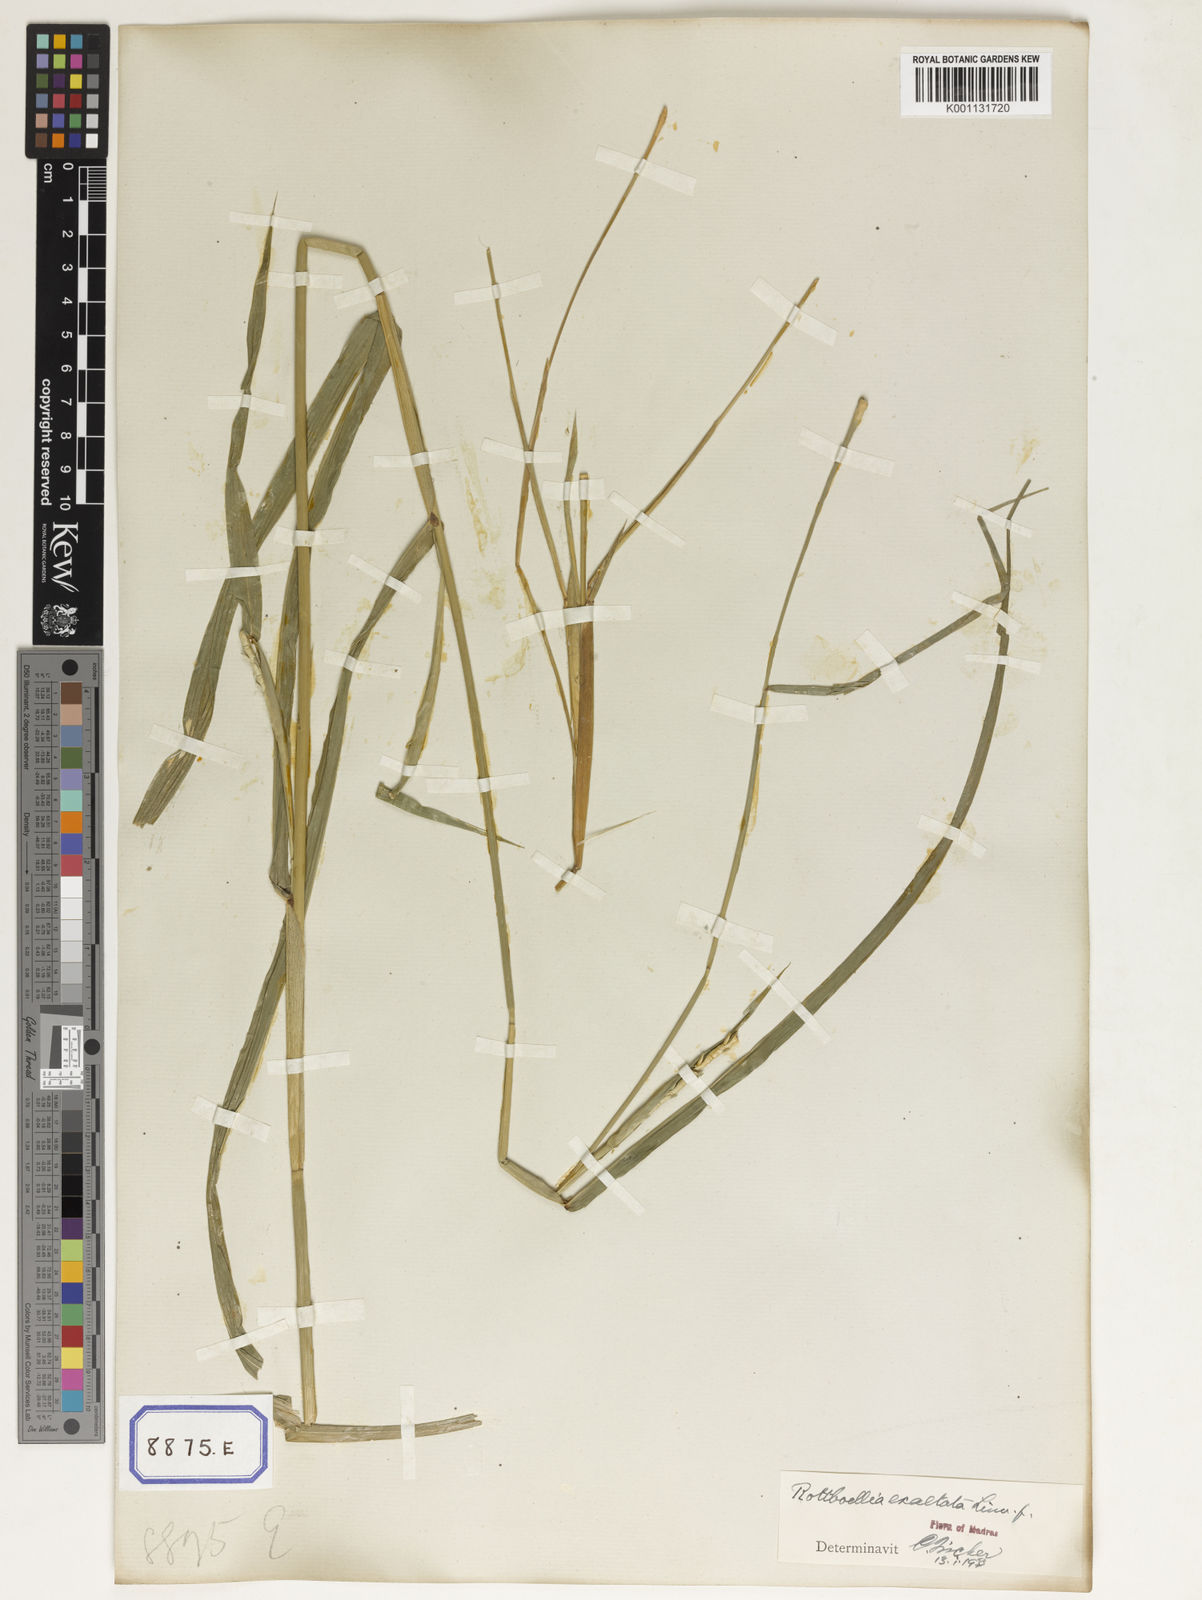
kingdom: Plantae
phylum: Tracheophyta
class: Liliopsida
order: Poales
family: Poaceae
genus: Ophiuros
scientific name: Ophiuros exaltatus
